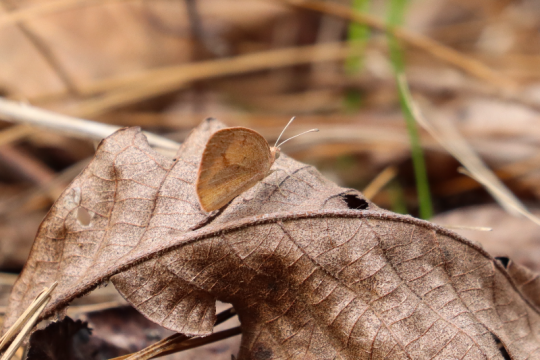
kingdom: Animalia
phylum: Arthropoda
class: Insecta
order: Lepidoptera
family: Pieridae
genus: Eurema
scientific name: Eurema daira
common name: Barred Yellow
